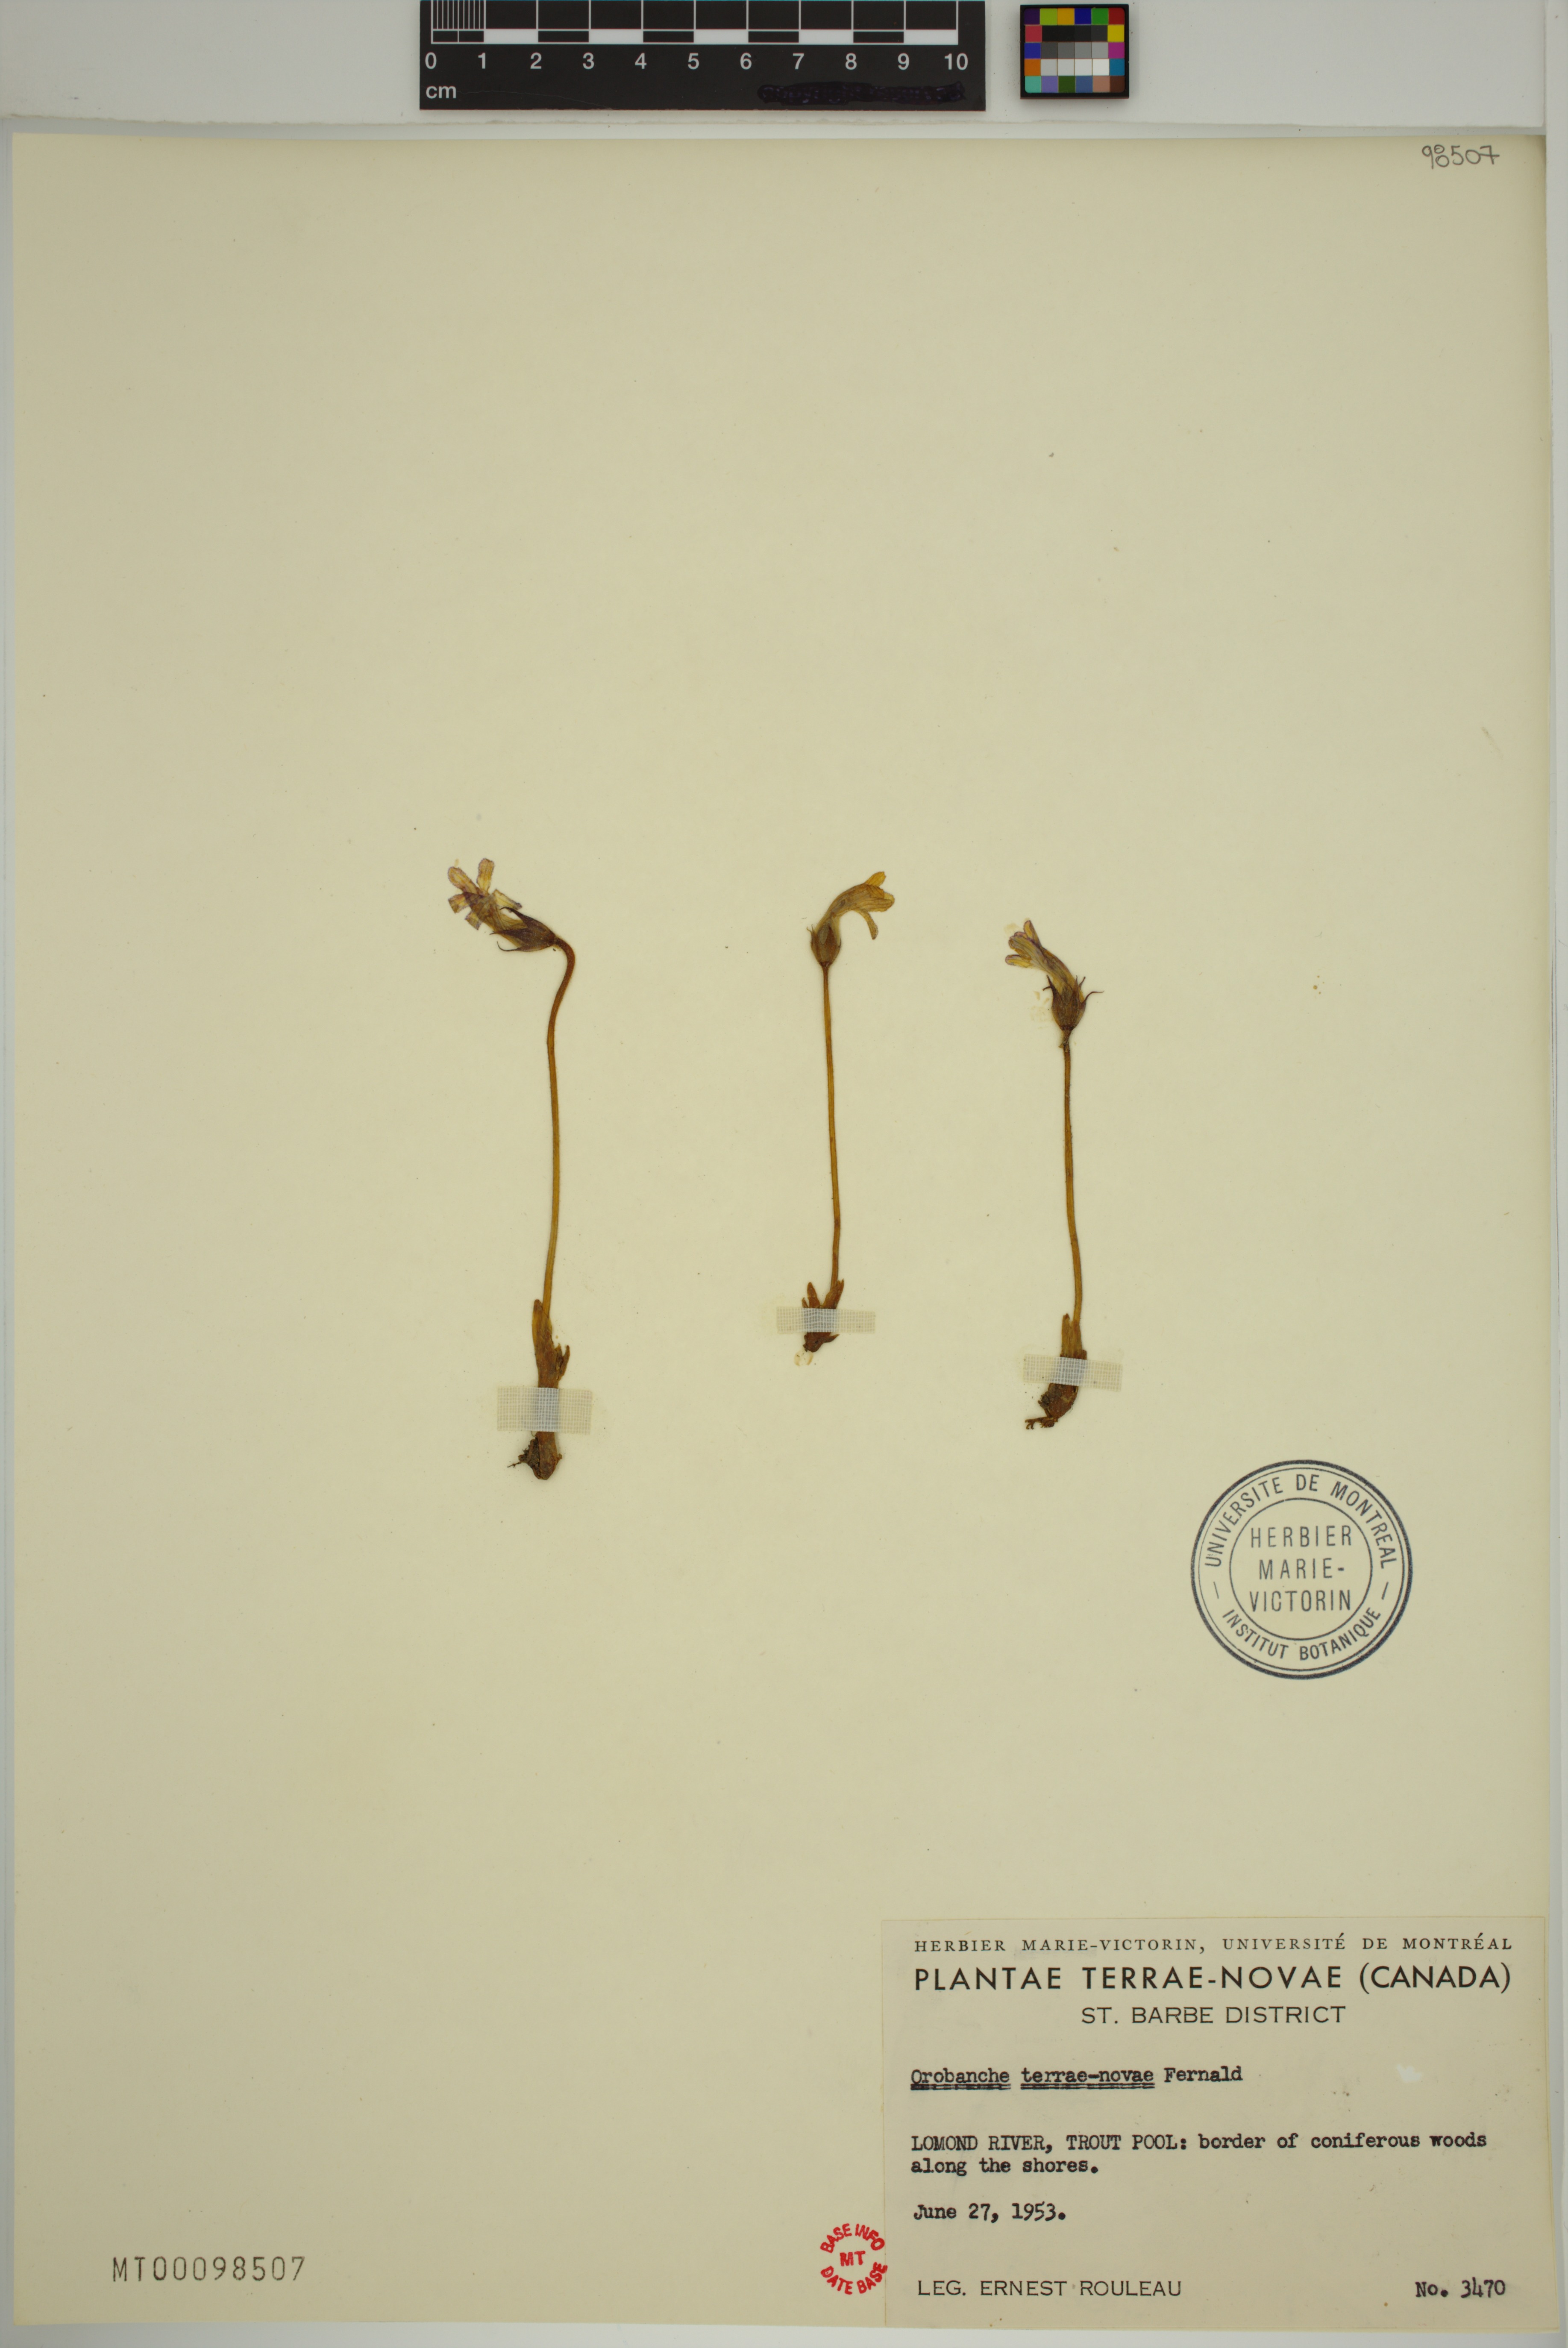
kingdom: Plantae
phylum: Tracheophyta
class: Magnoliopsida
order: Lamiales
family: Orobanchaceae
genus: Aphyllon
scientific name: Aphyllon uniflorum
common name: One-flowered broomrape
